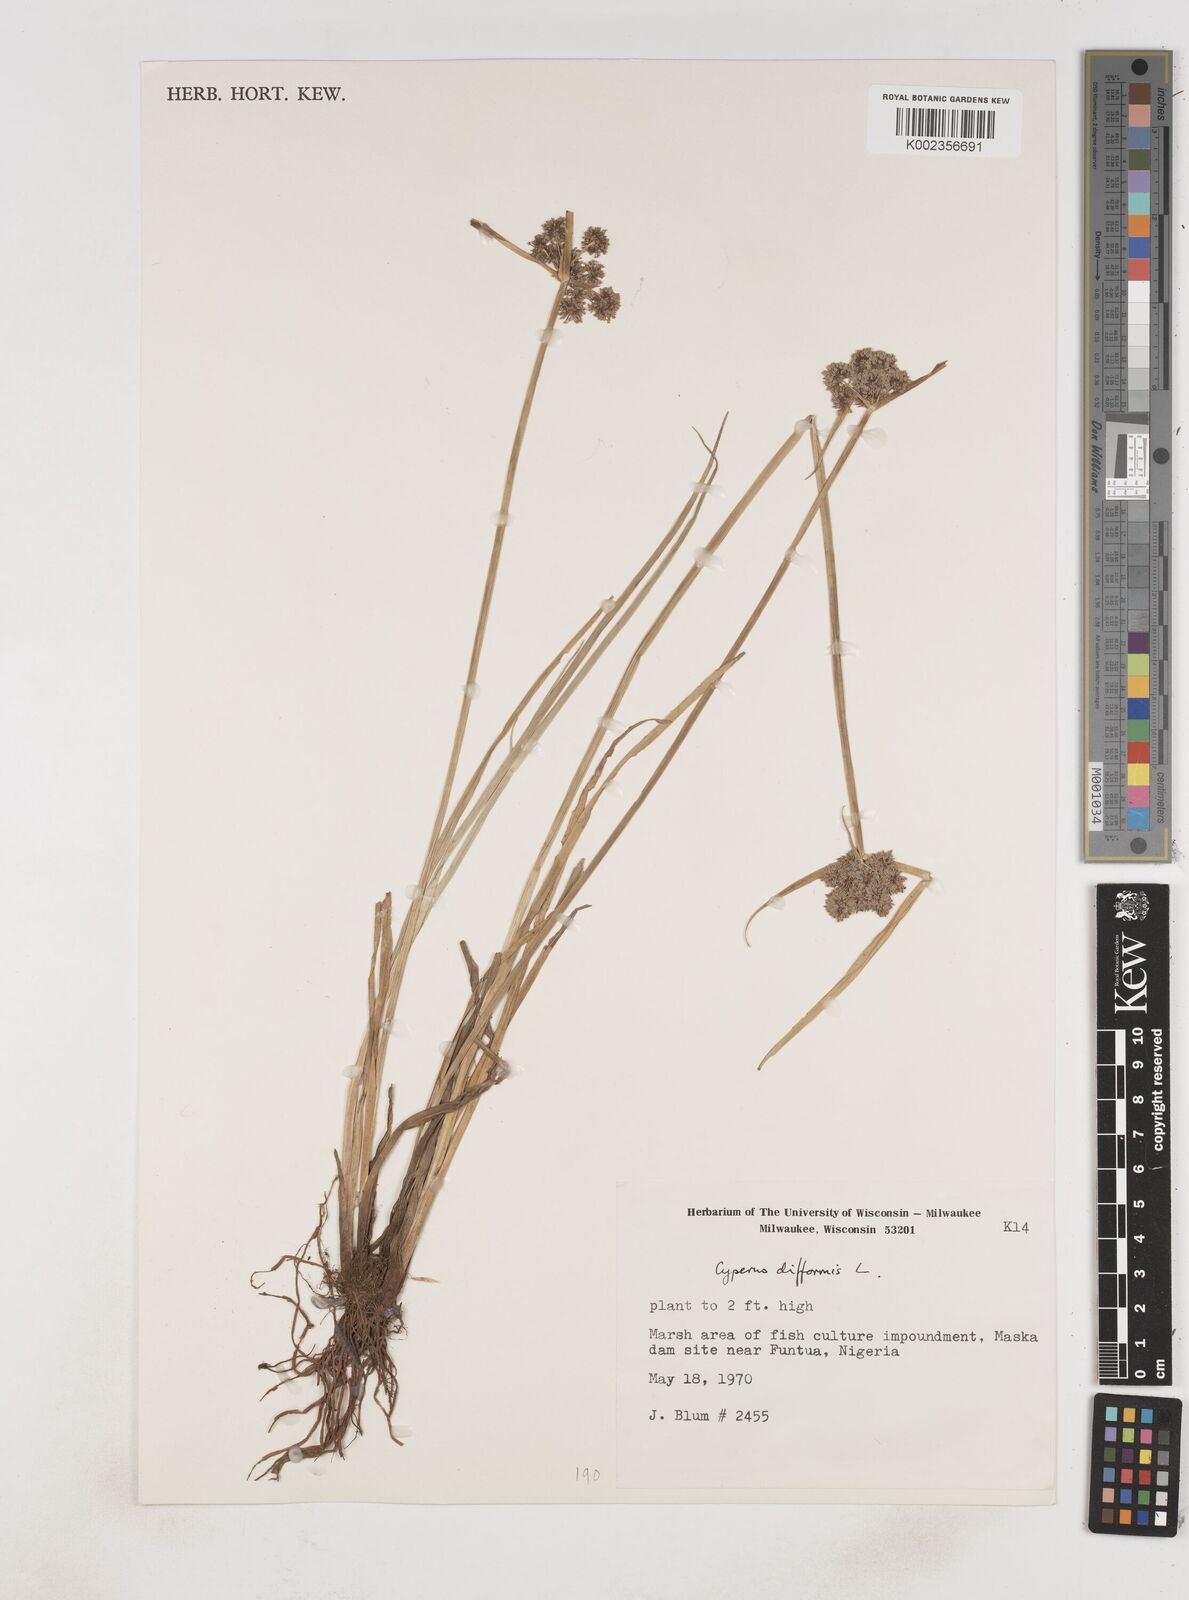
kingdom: Plantae
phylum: Tracheophyta
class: Liliopsida
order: Poales
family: Cyperaceae
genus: Cyperus
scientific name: Cyperus difformis
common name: Variable flatsedge
